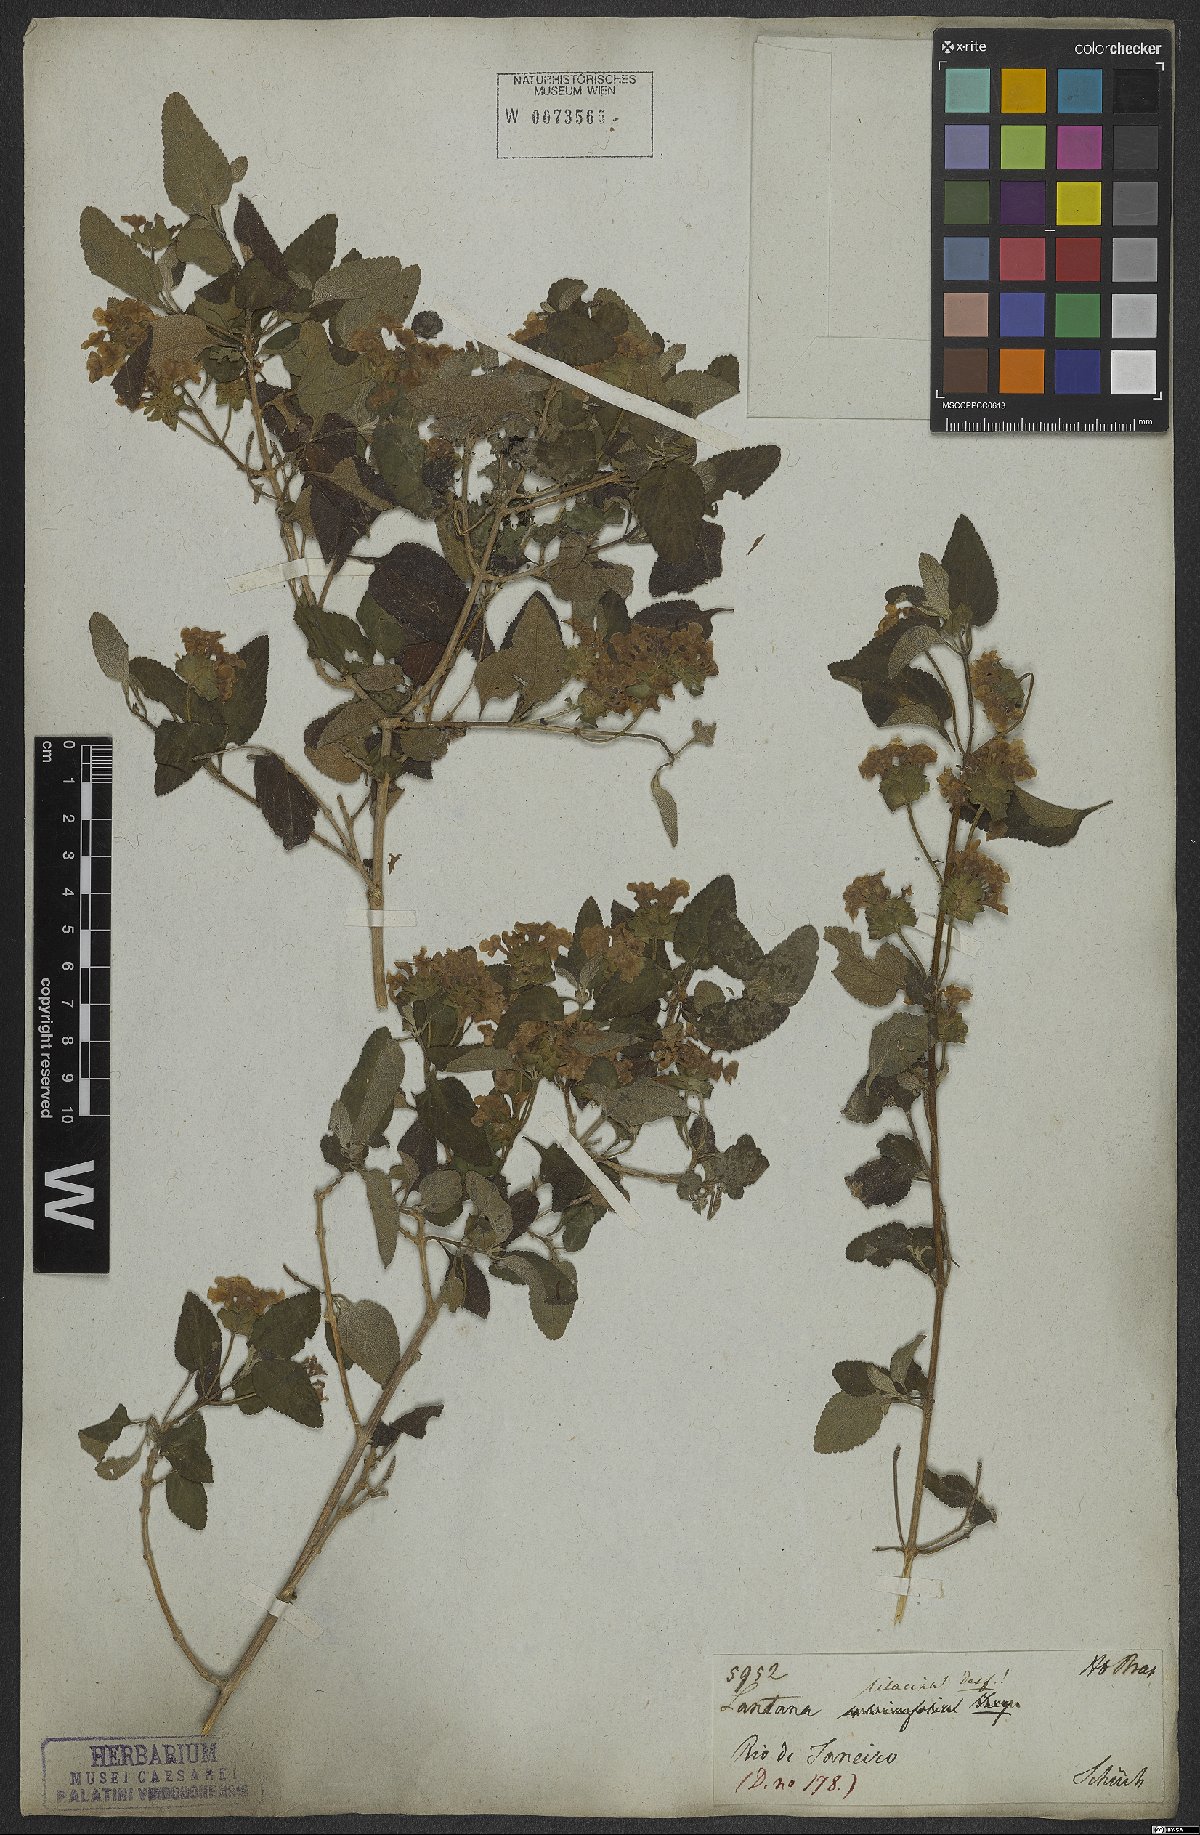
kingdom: Plantae
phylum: Tracheophyta
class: Magnoliopsida
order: Lamiales
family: Verbenaceae
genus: Lantana
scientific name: Lantana fucata
